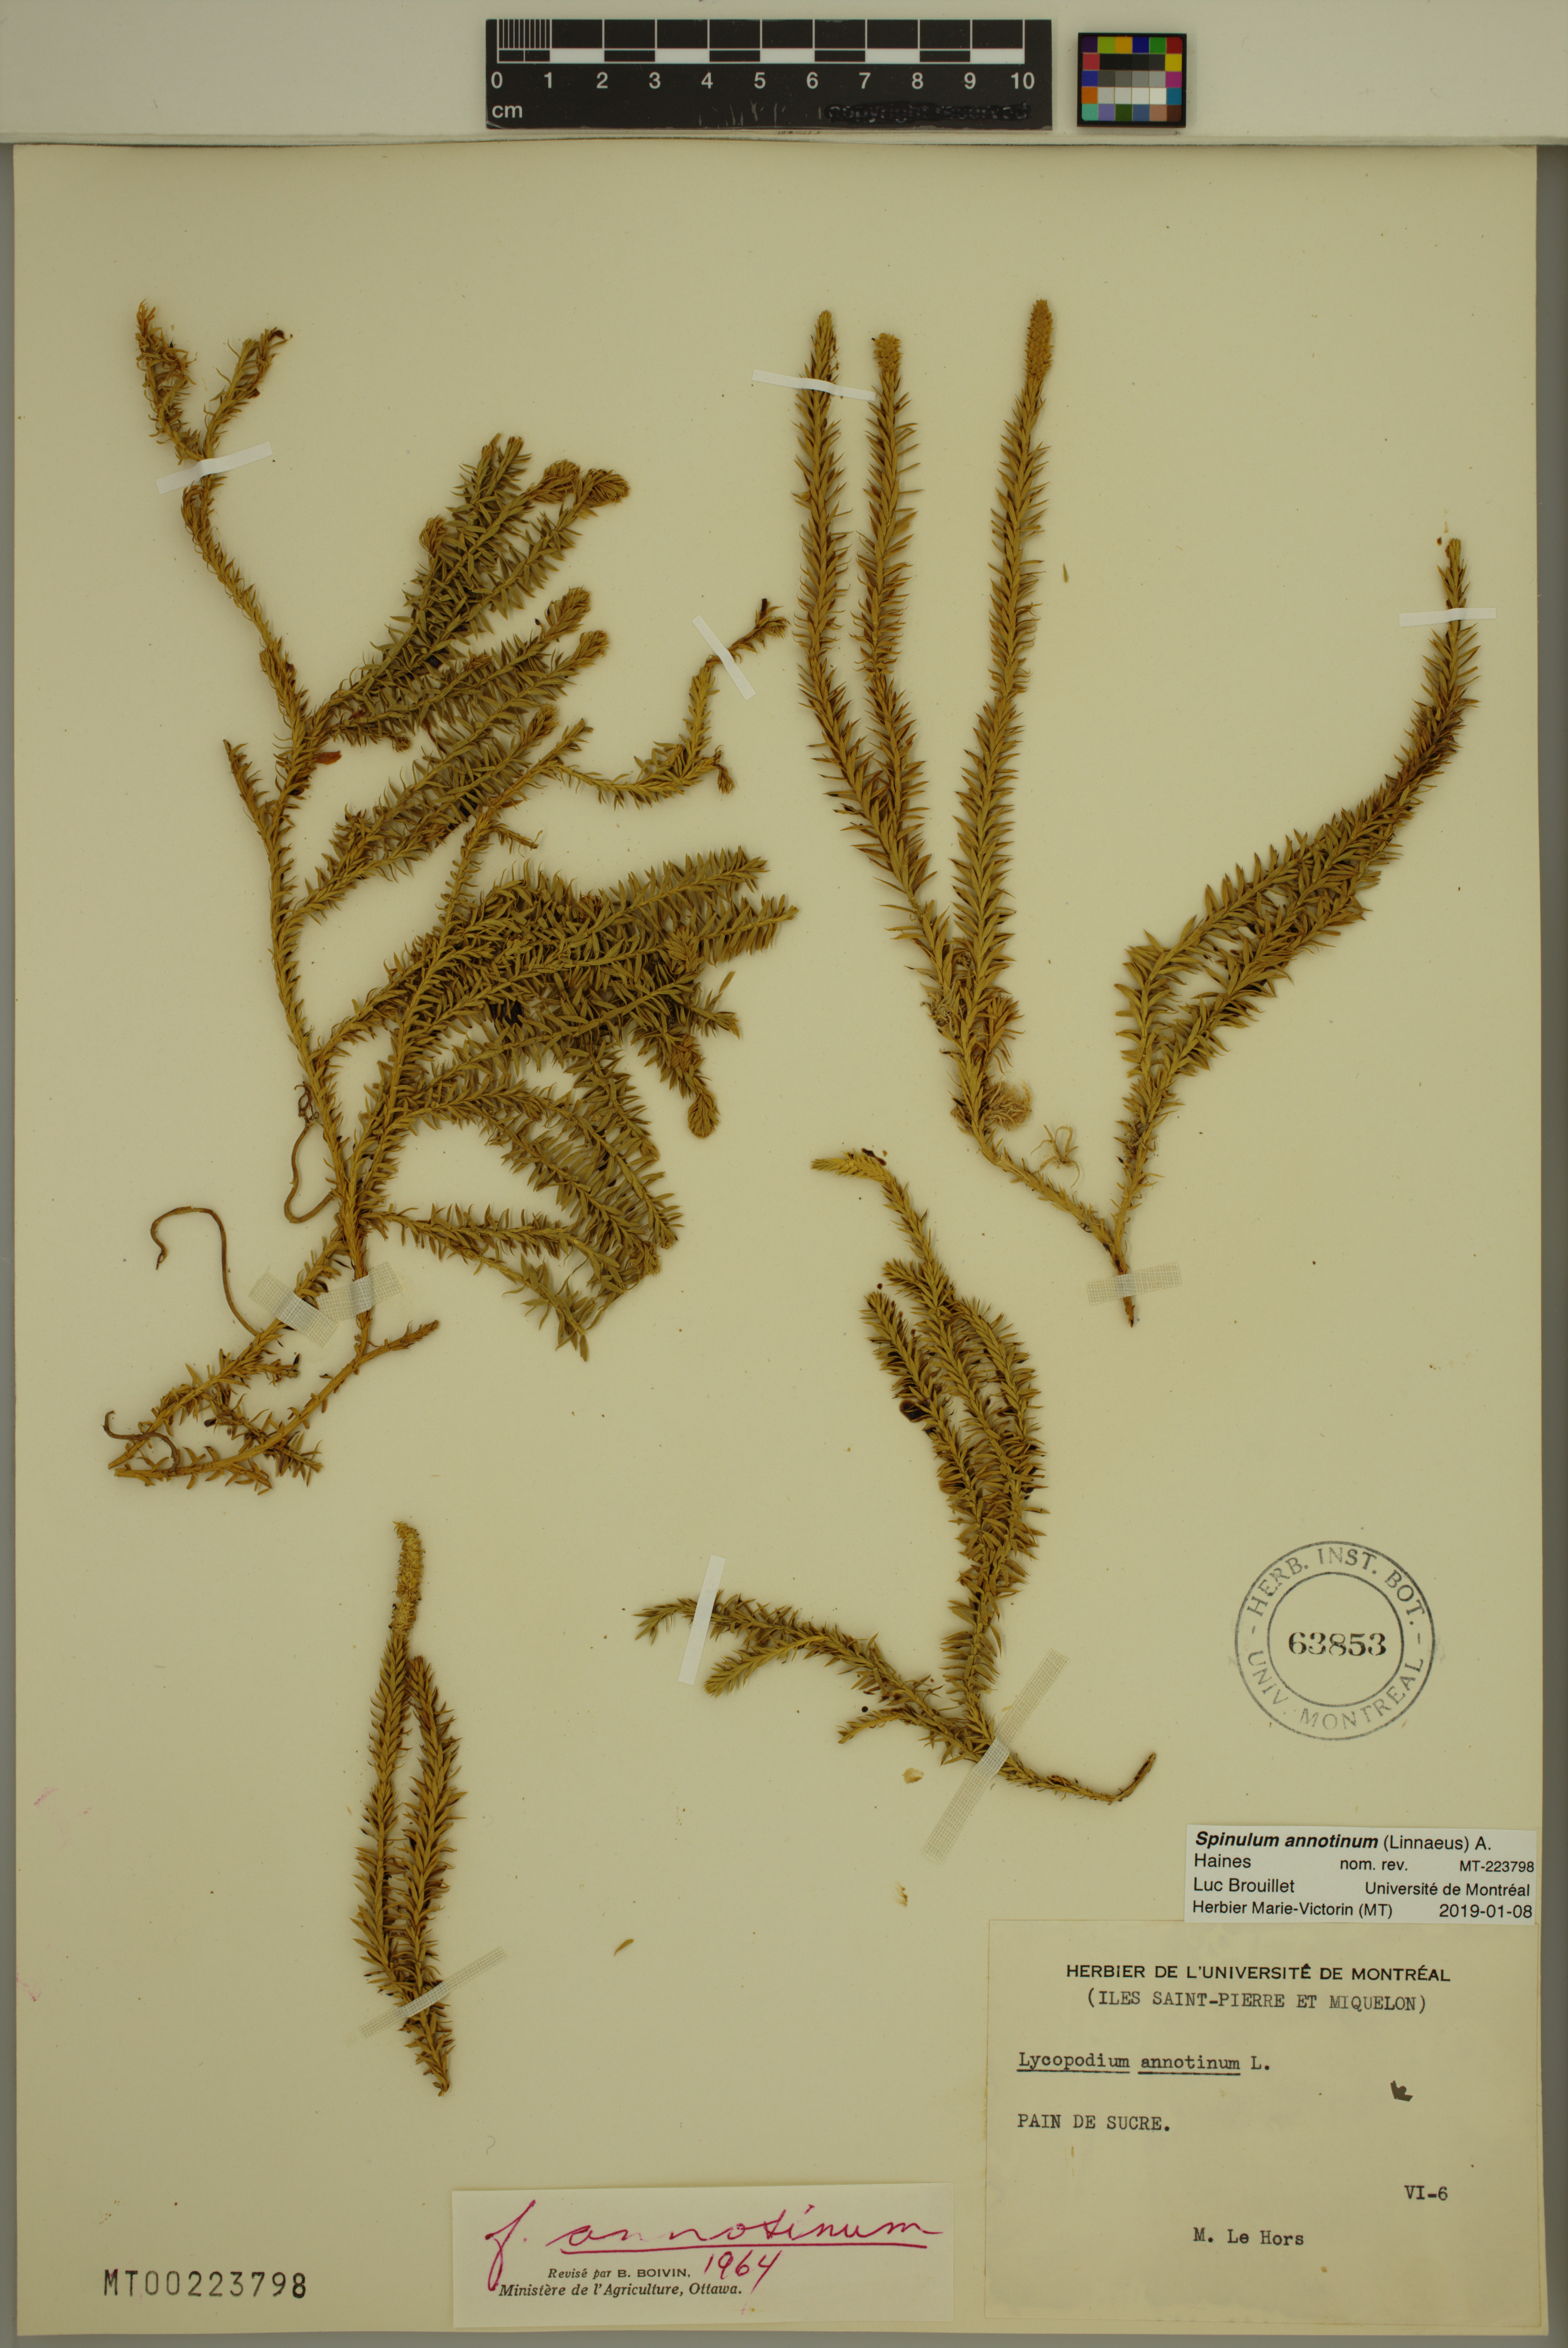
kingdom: Plantae
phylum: Tracheophyta
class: Lycopodiopsida
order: Lycopodiales
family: Lycopodiaceae
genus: Spinulum
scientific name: Spinulum annotinum
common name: Interrupted club-moss
